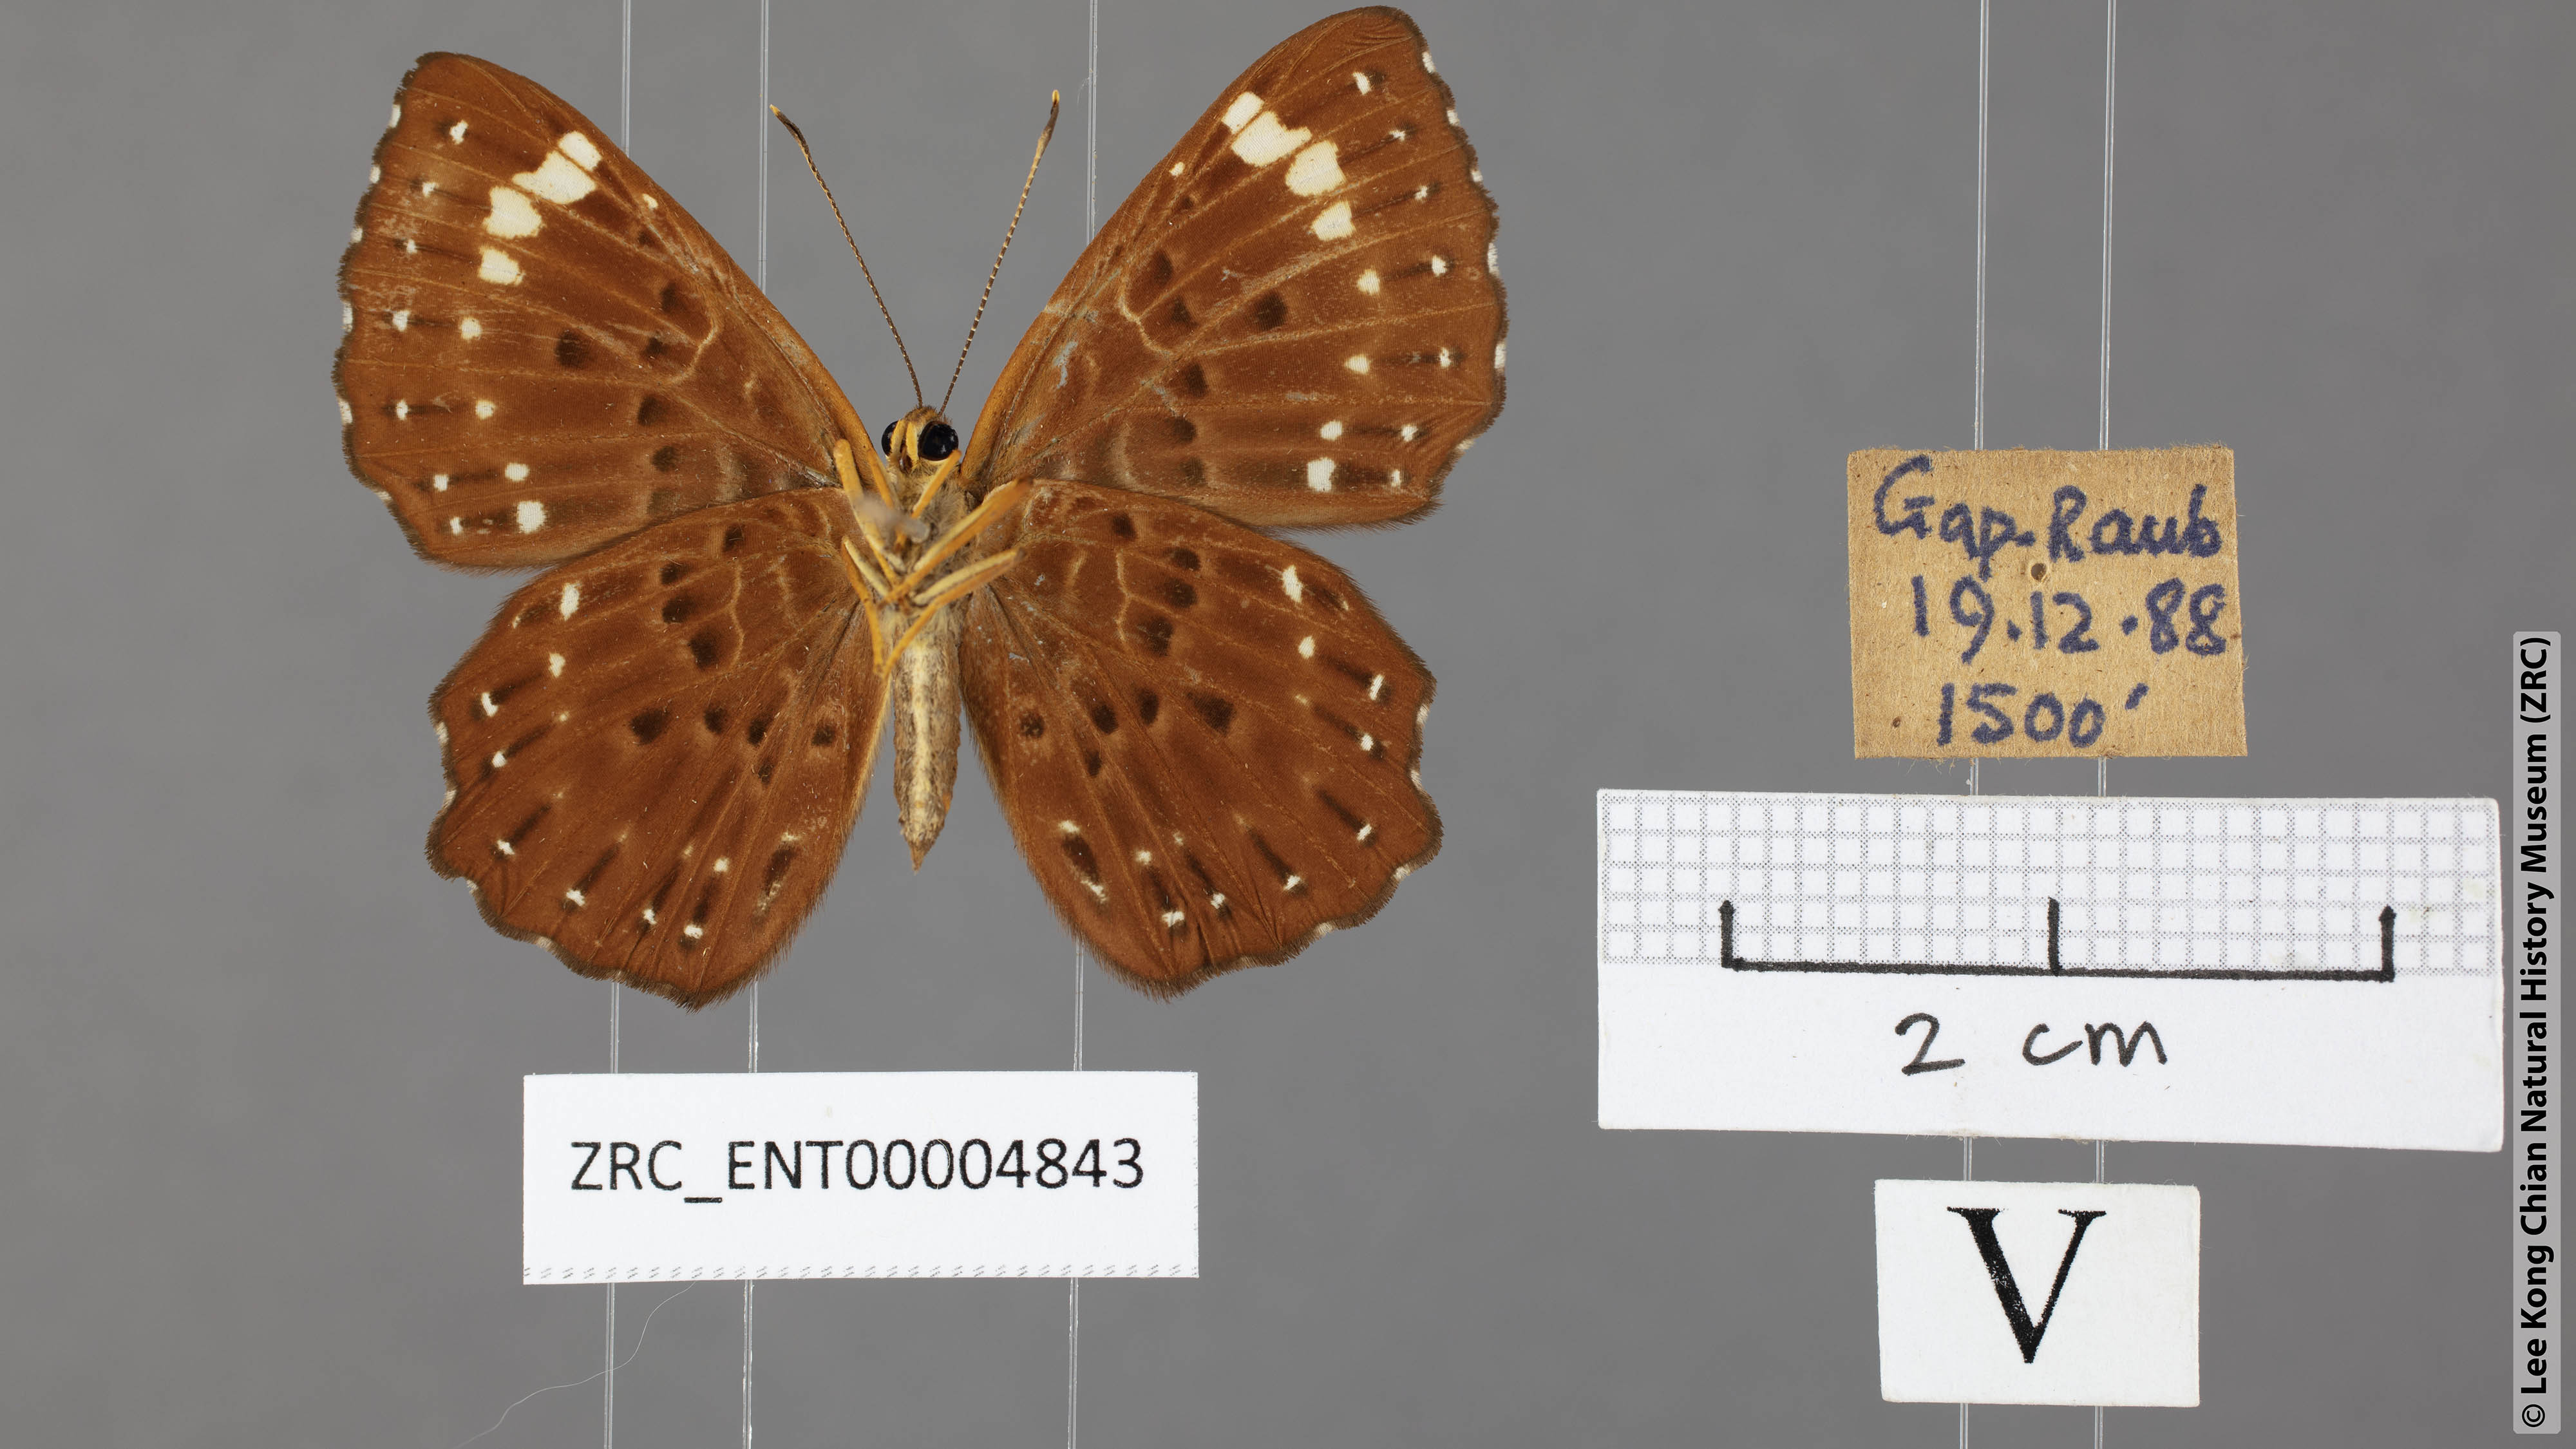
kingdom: Animalia
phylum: Arthropoda
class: Insecta
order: Lepidoptera
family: Riodinidae
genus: Zemeros
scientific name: Zemeros flegyas
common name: Punchinello
